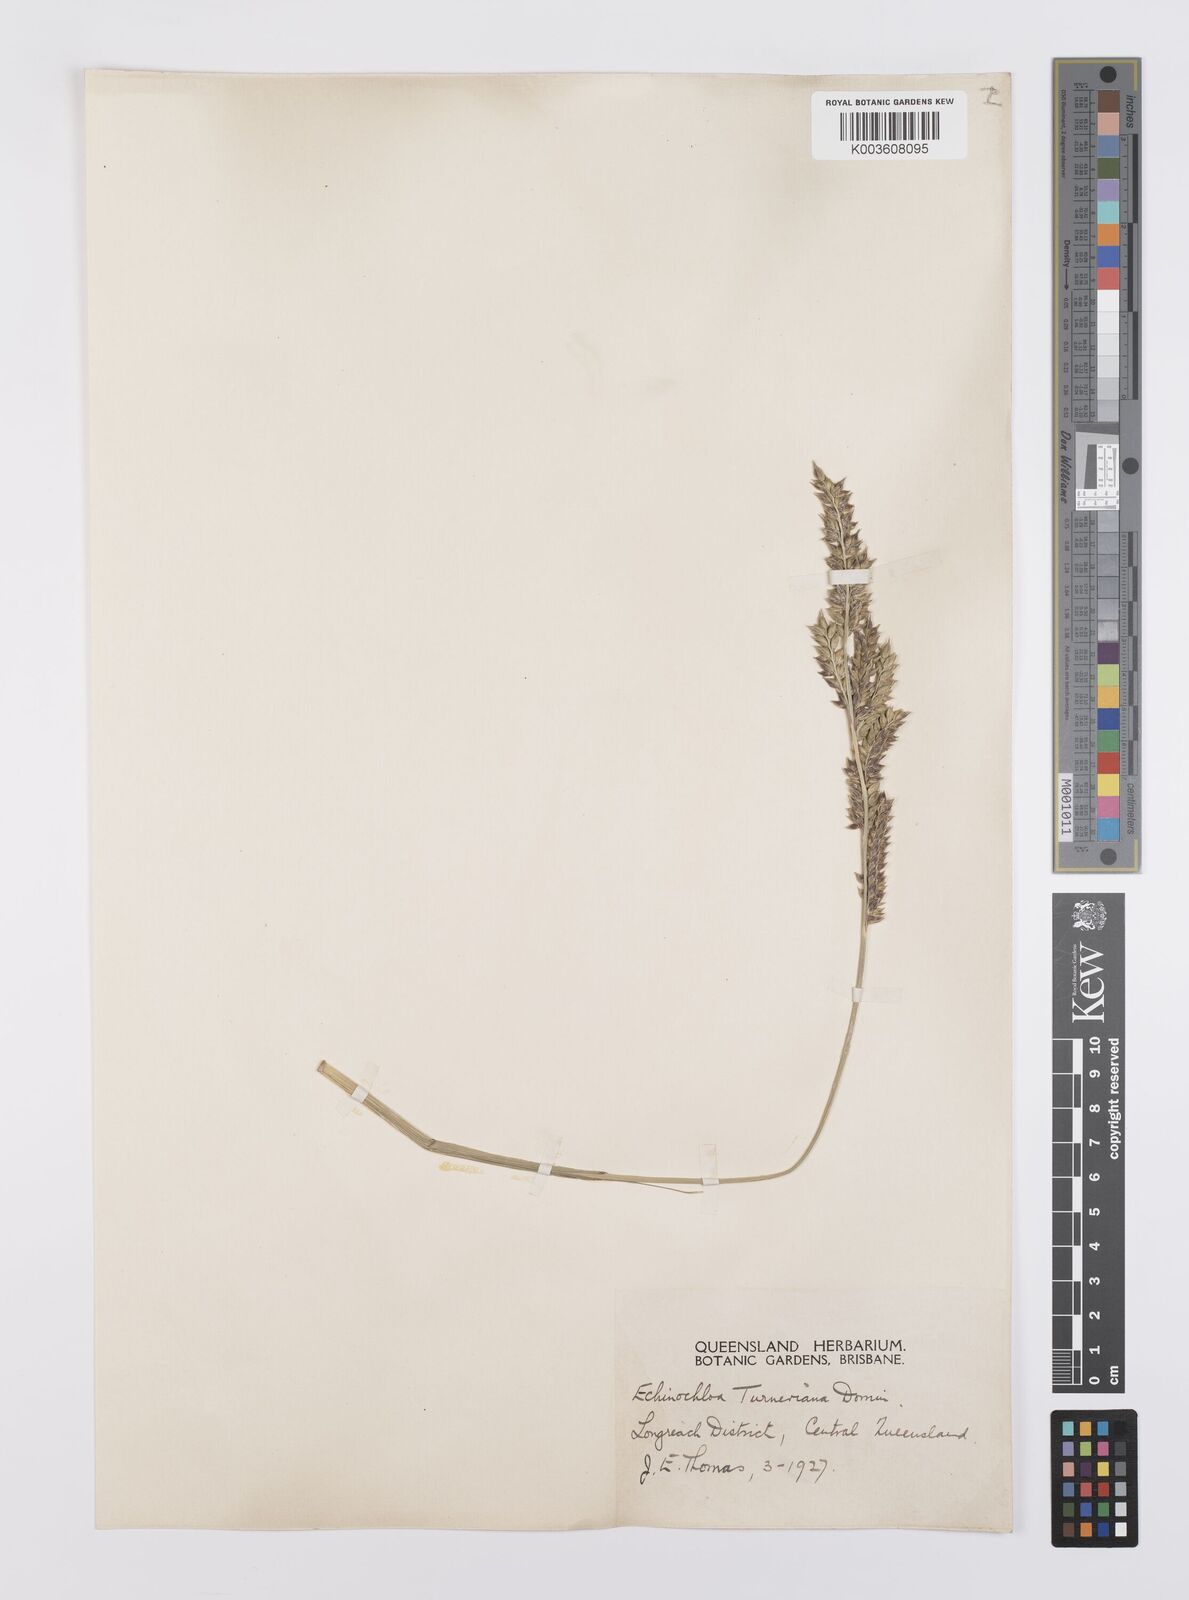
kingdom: Plantae
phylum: Tracheophyta
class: Liliopsida
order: Poales
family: Poaceae
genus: Echinochloa
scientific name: Echinochloa turneriana
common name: Channel millet
